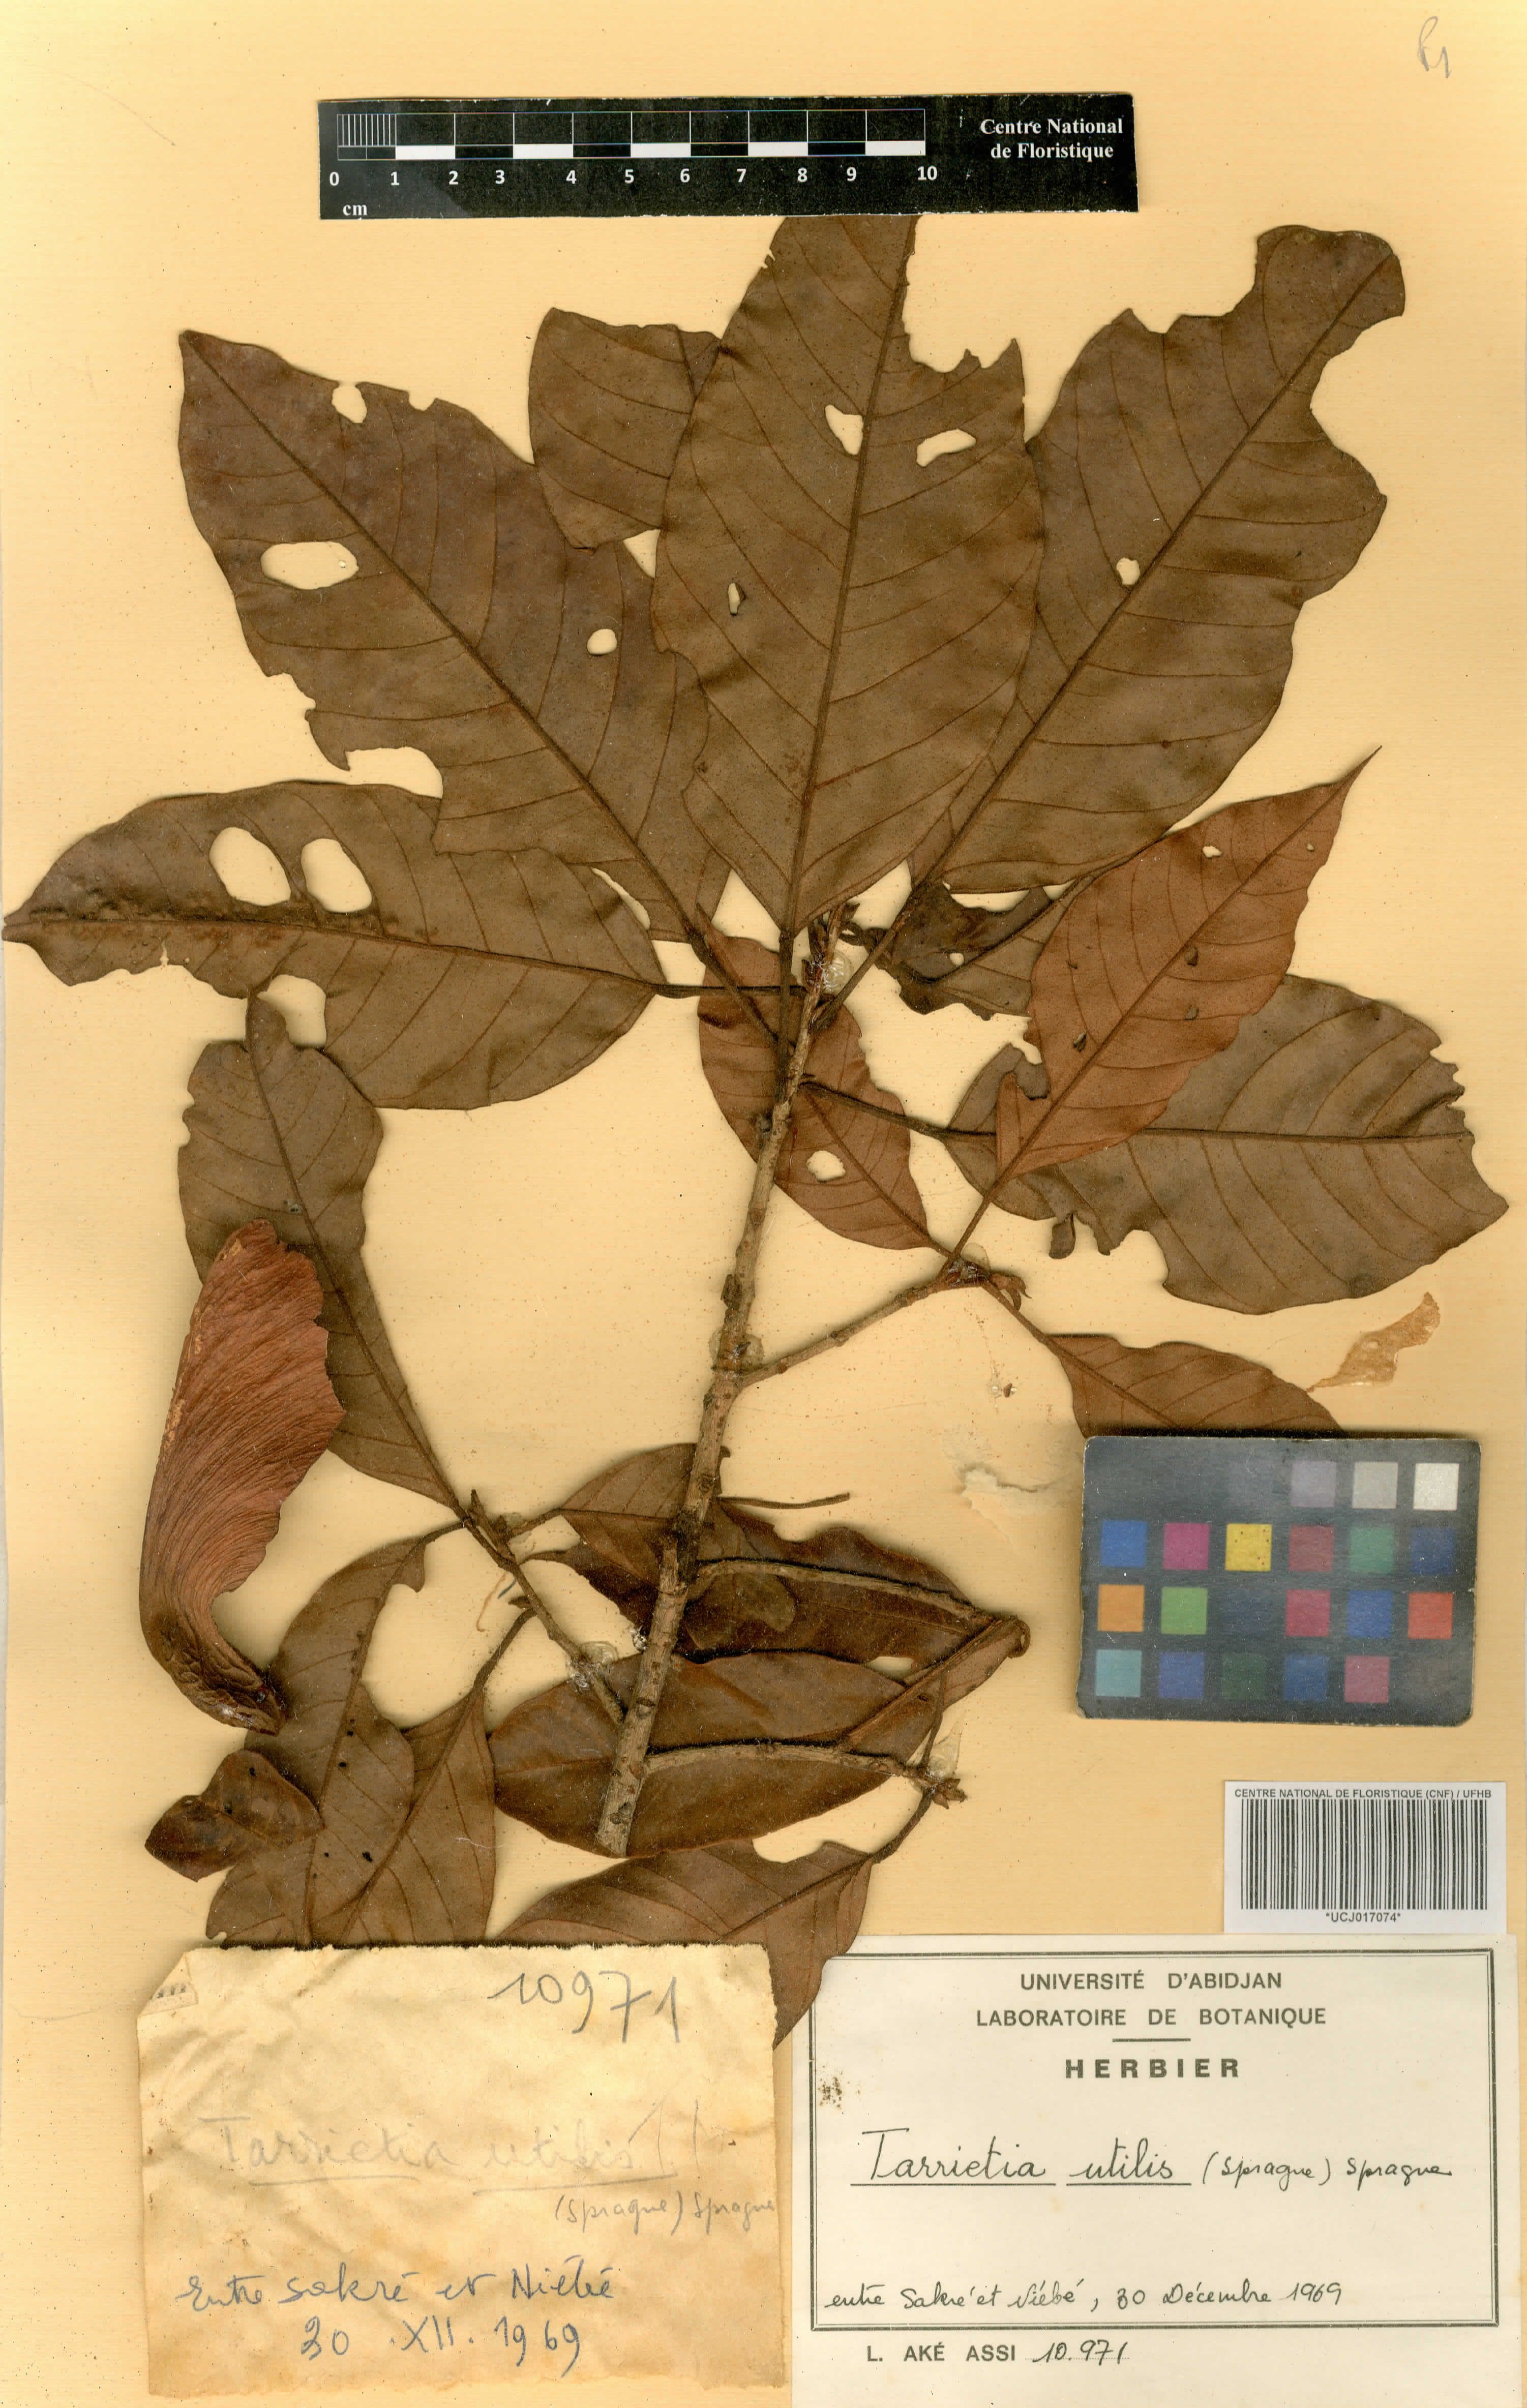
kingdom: Plantae
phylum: Tracheophyta
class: Magnoliopsida
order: Malvales
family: Malvaceae
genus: Heritiera
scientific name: Heritiera utilis
